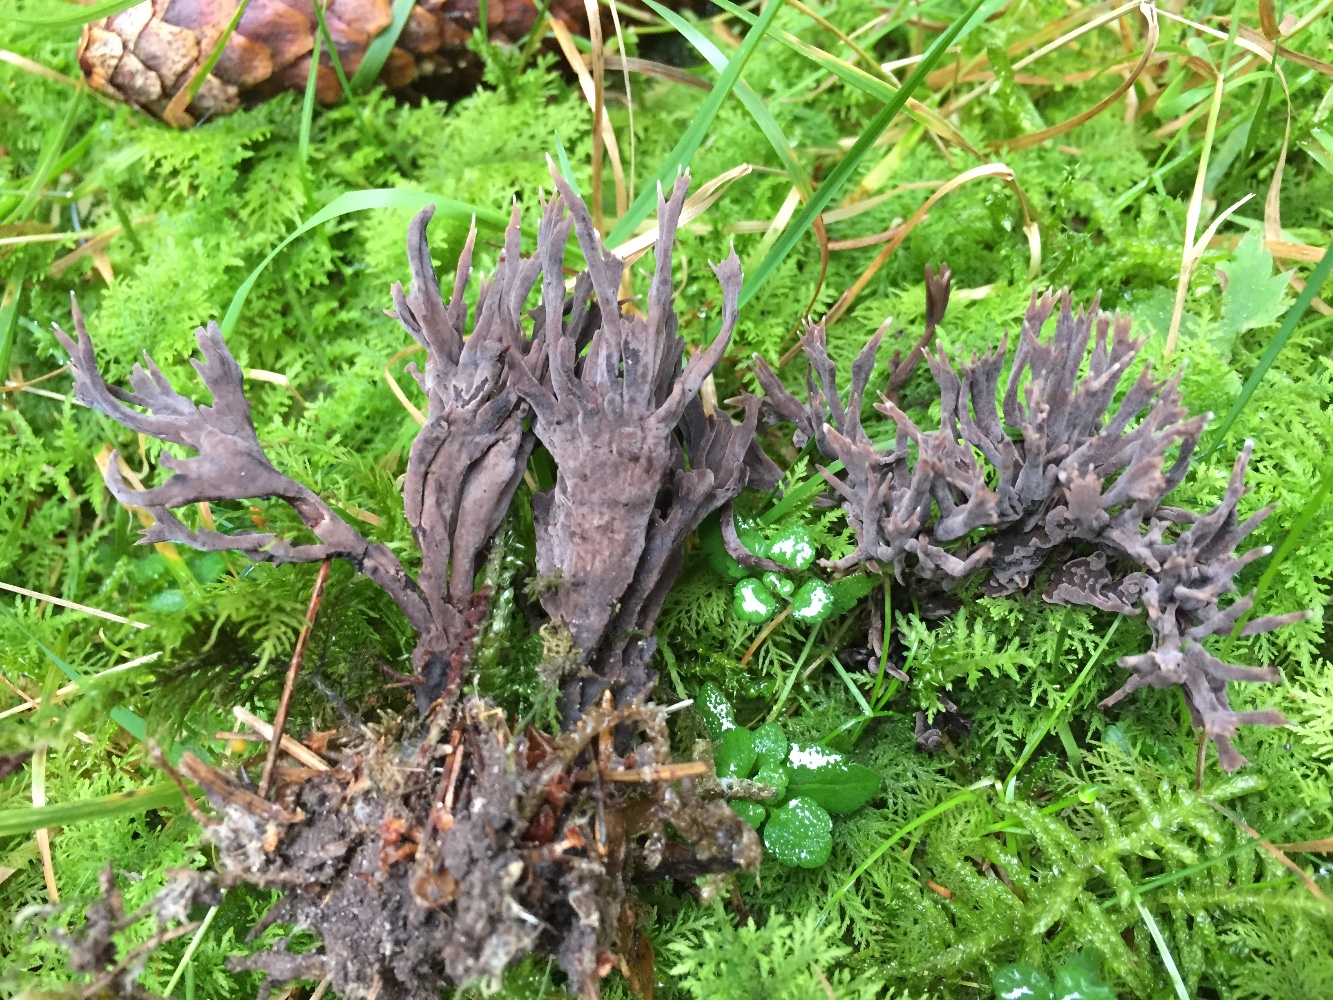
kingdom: Fungi
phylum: Basidiomycota
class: Agaricomycetes
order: Thelephorales
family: Thelephoraceae
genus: Thelephora
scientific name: Thelephora palmata
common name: grenet frynsesvamp
